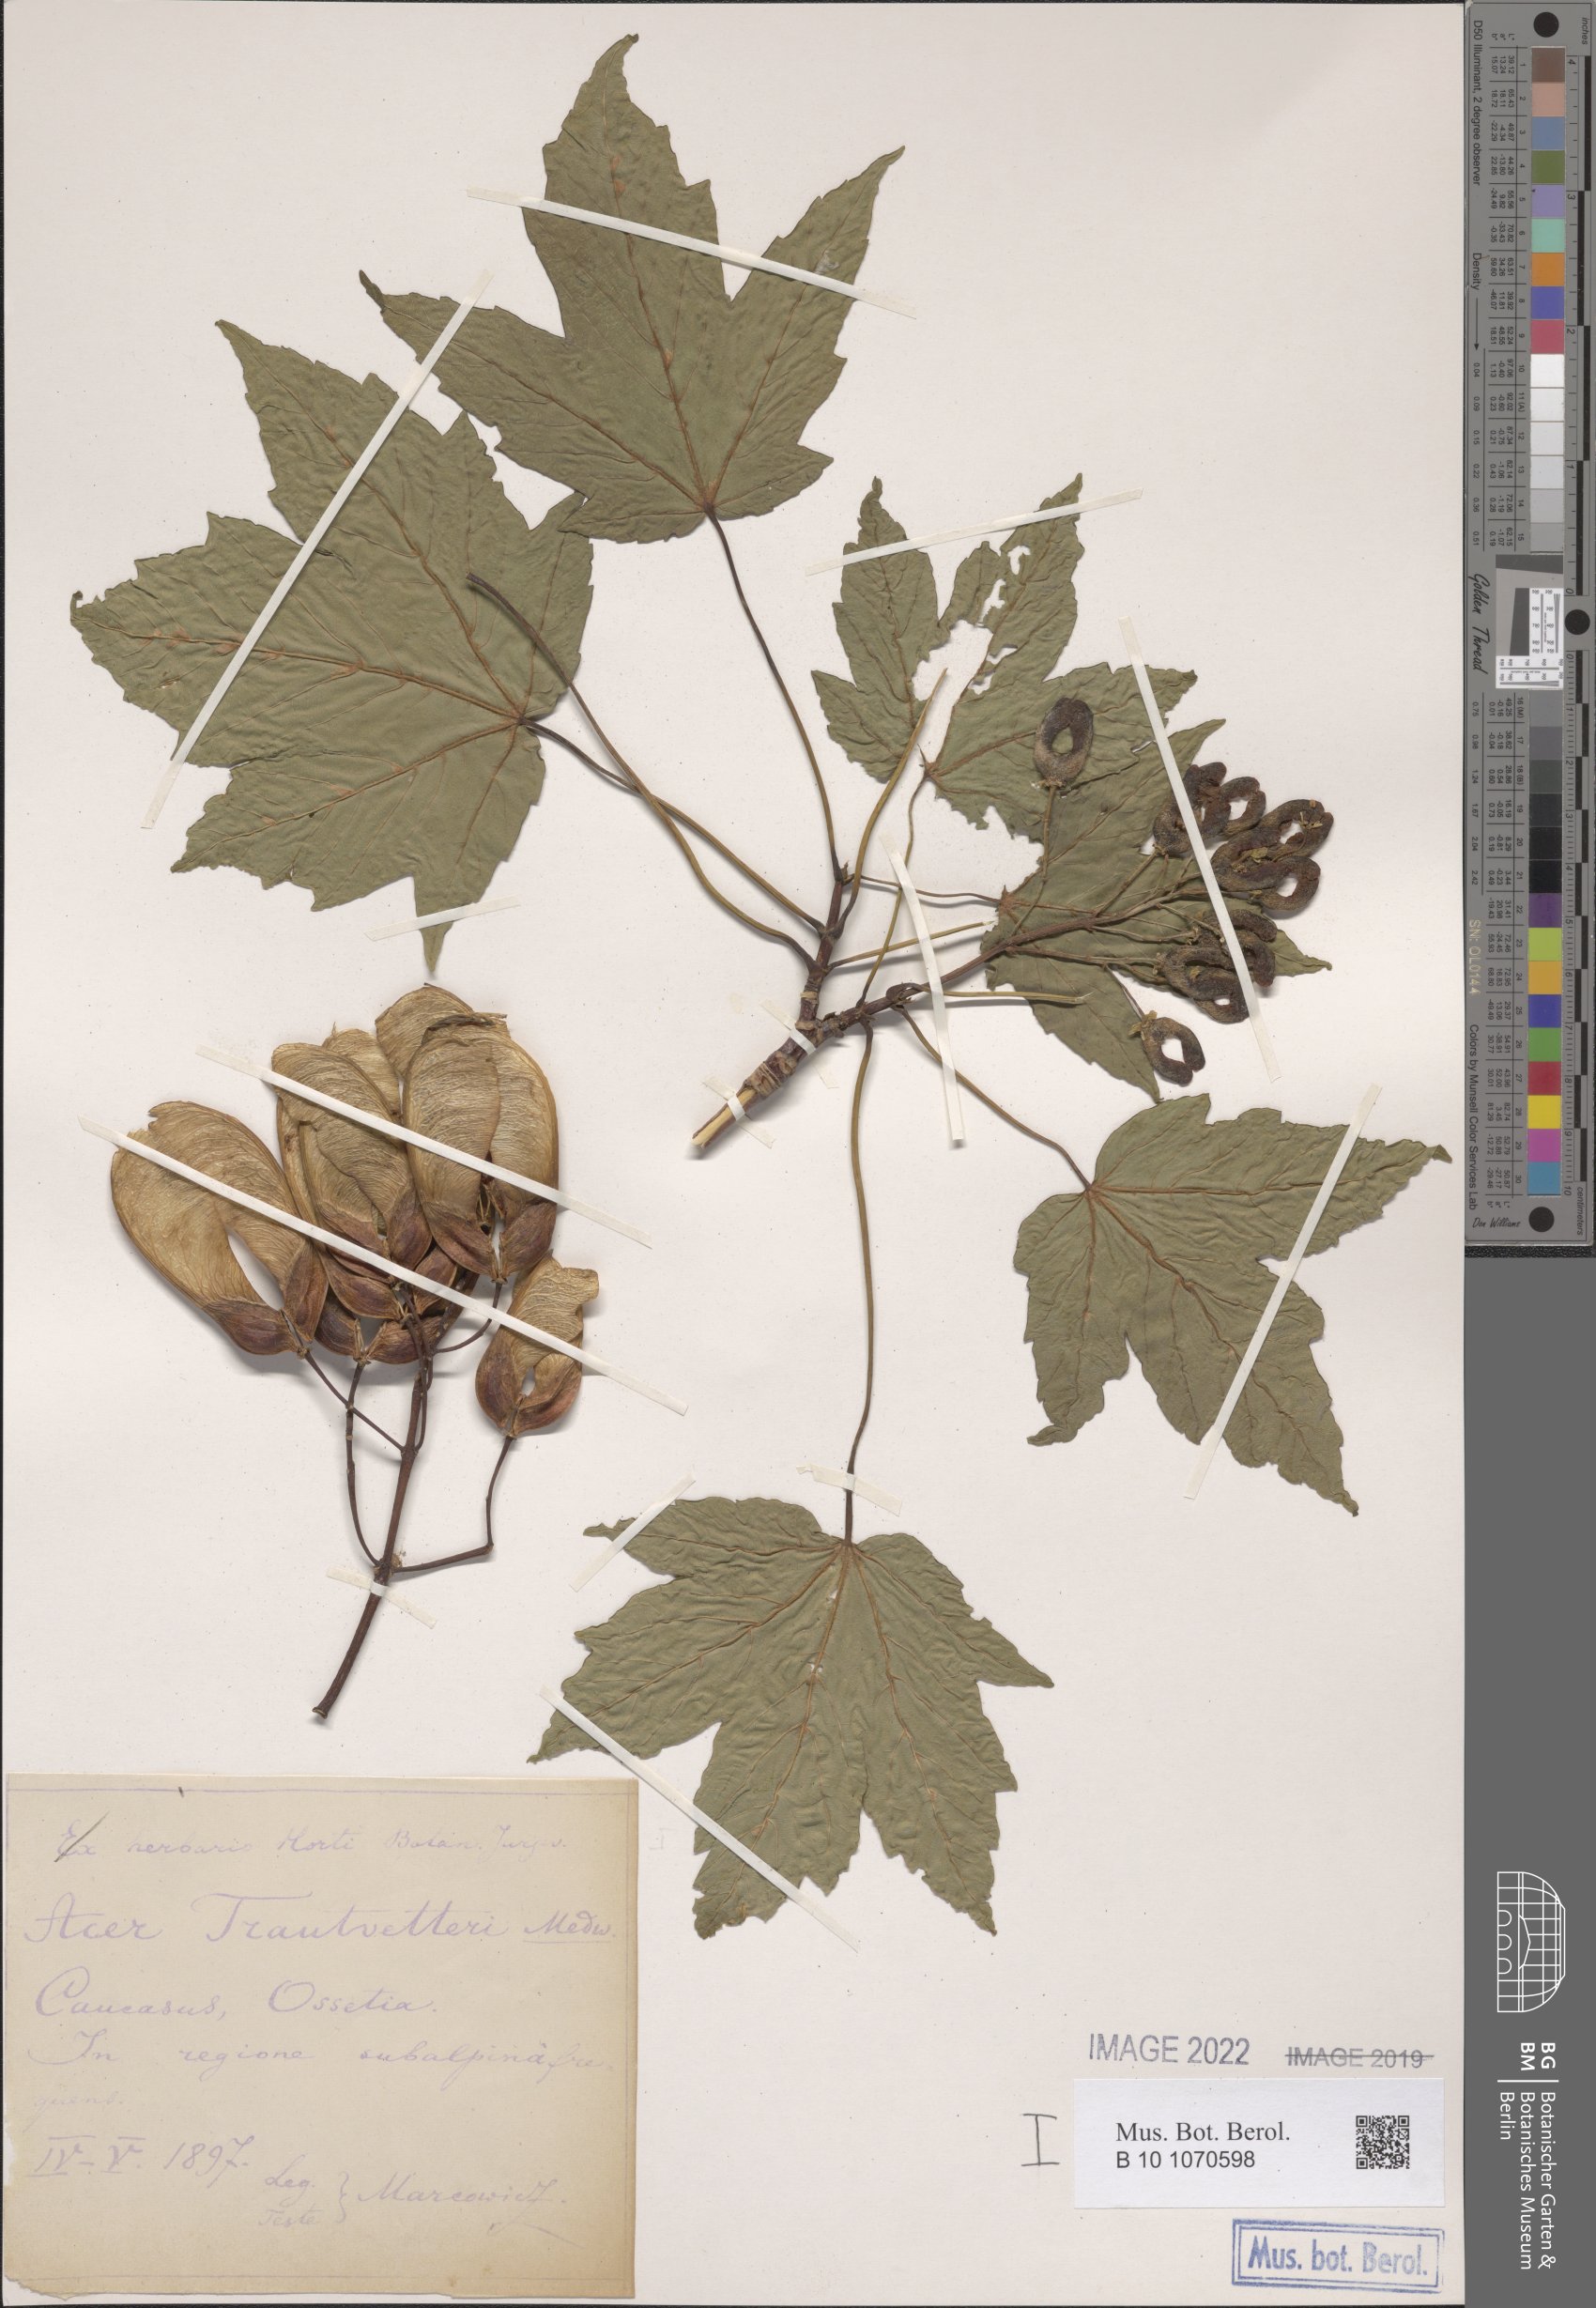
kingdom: Plantae
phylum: Tracheophyta
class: Magnoliopsida
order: Sapindales
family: Sapindaceae
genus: Acer
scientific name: Acer heldreichii
